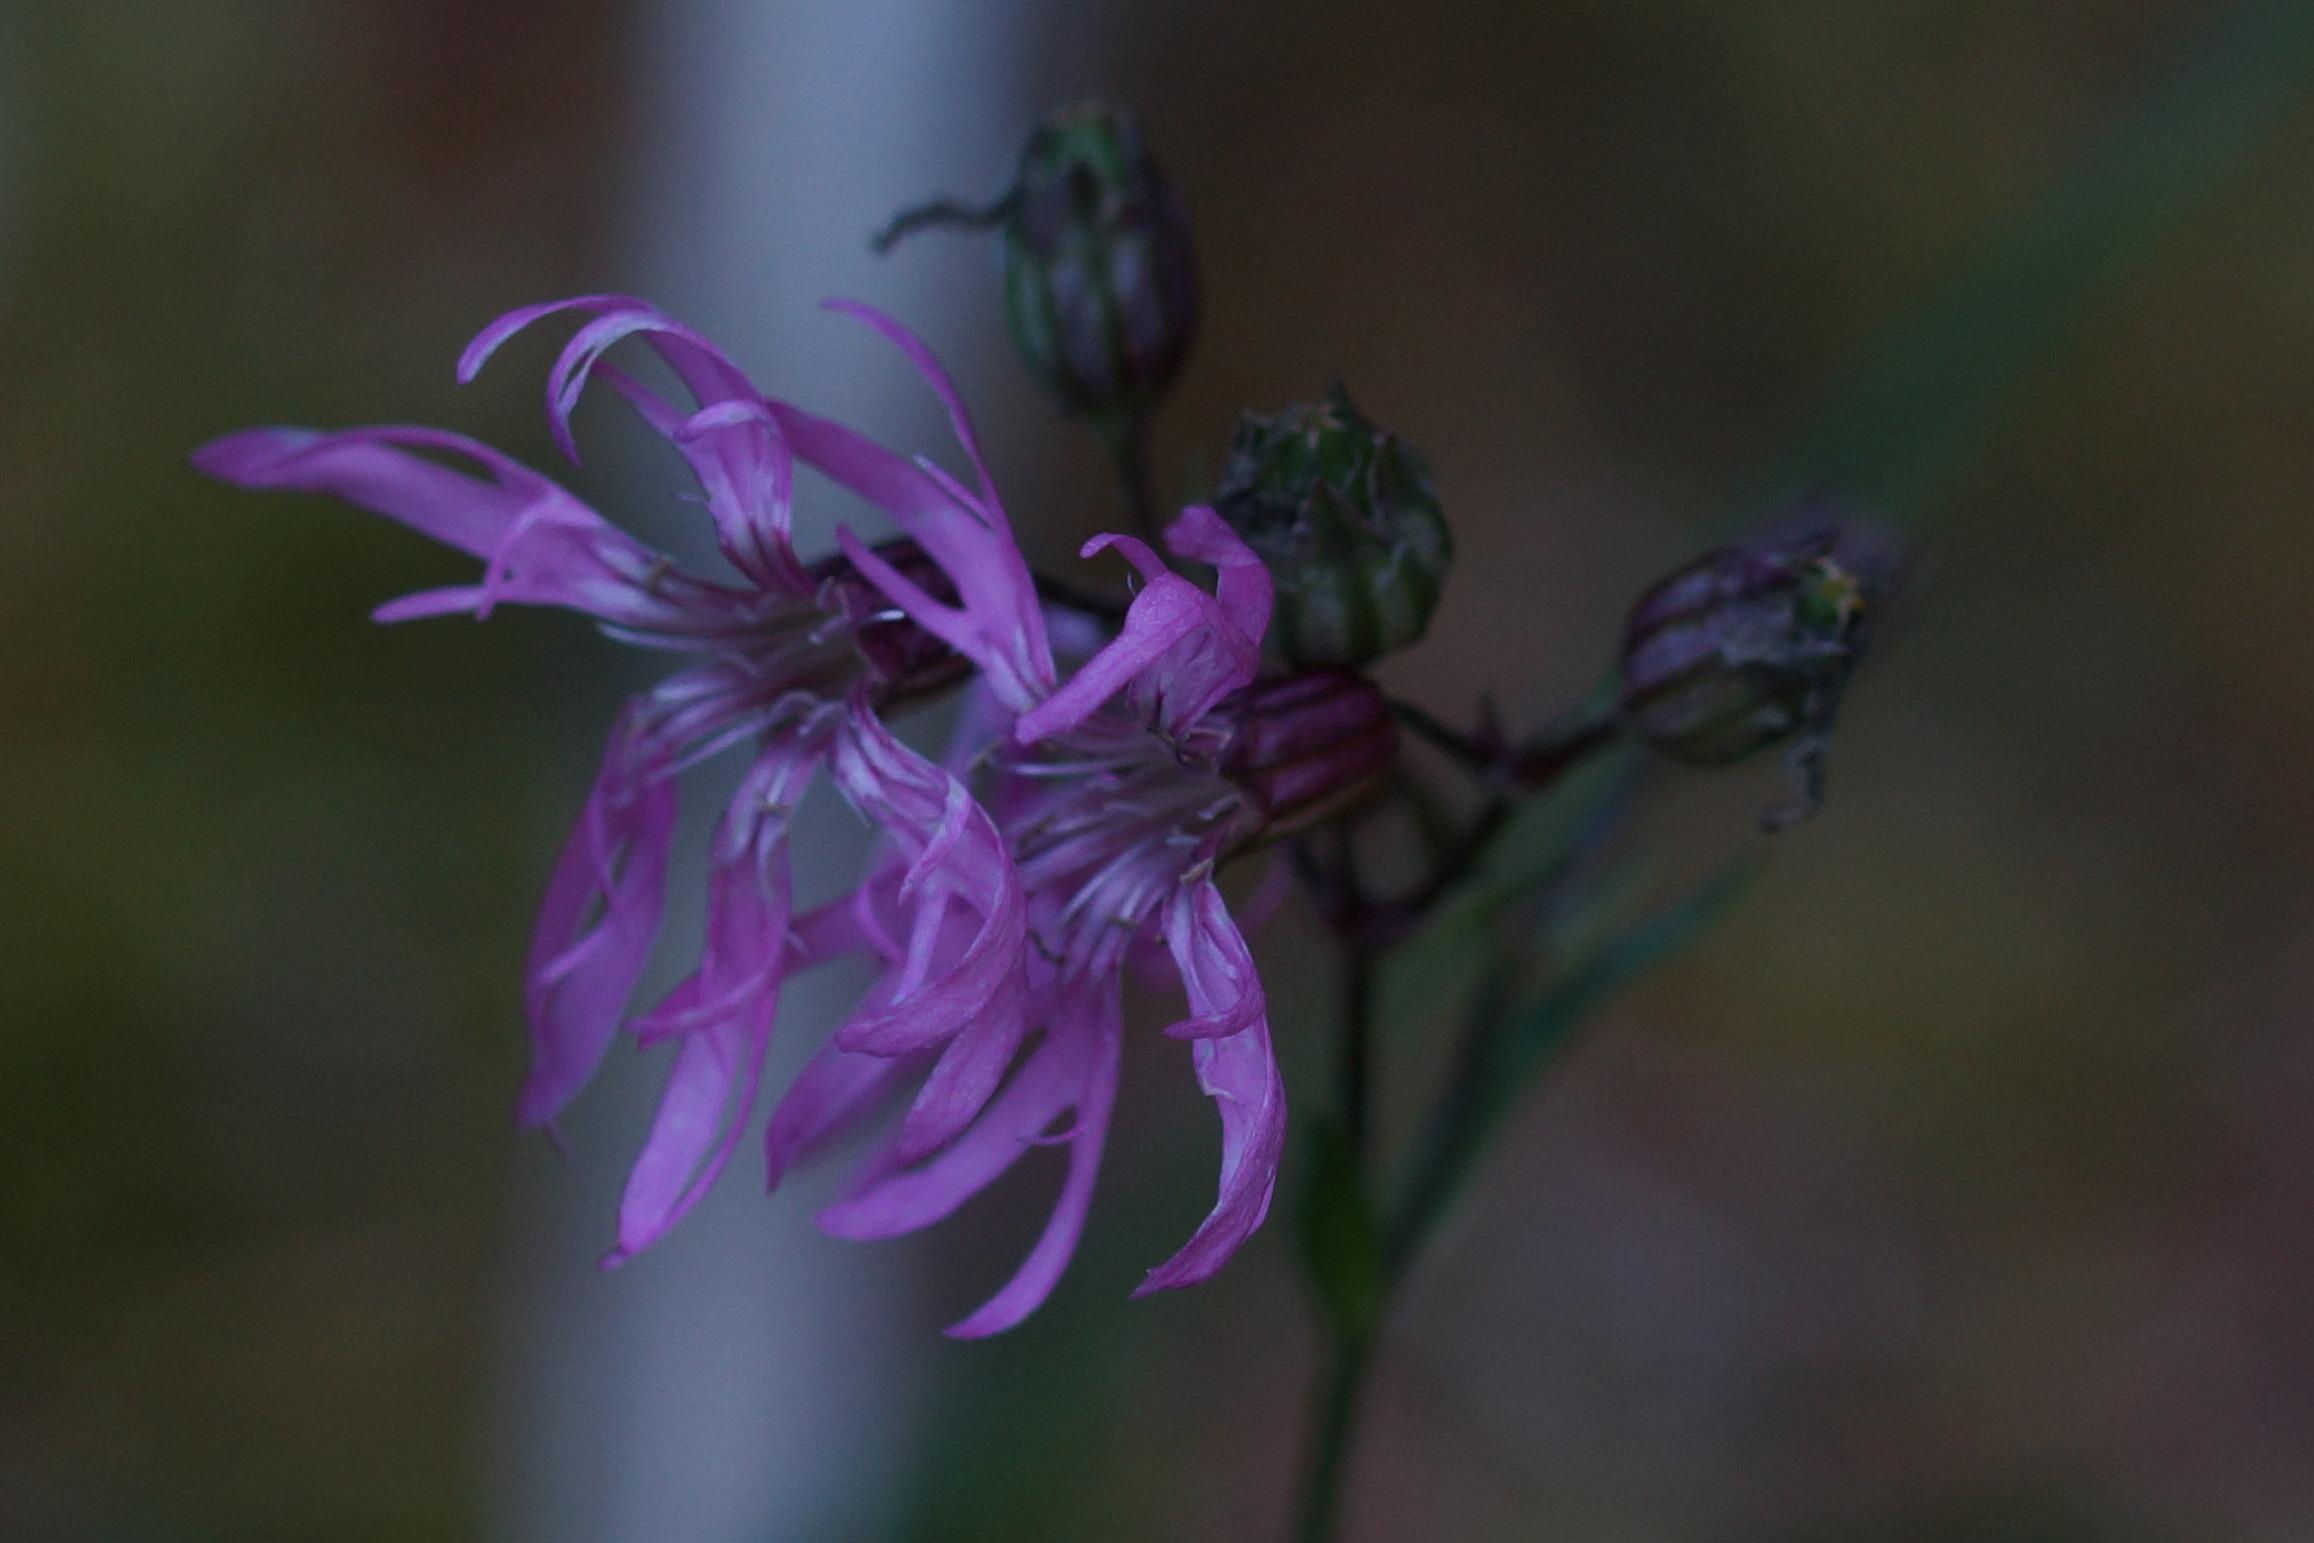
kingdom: Plantae
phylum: Tracheophyta
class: Magnoliopsida
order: Caryophyllales
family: Caryophyllaceae
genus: Silene
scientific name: Silene flos-cuculi
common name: Trævlekrone
